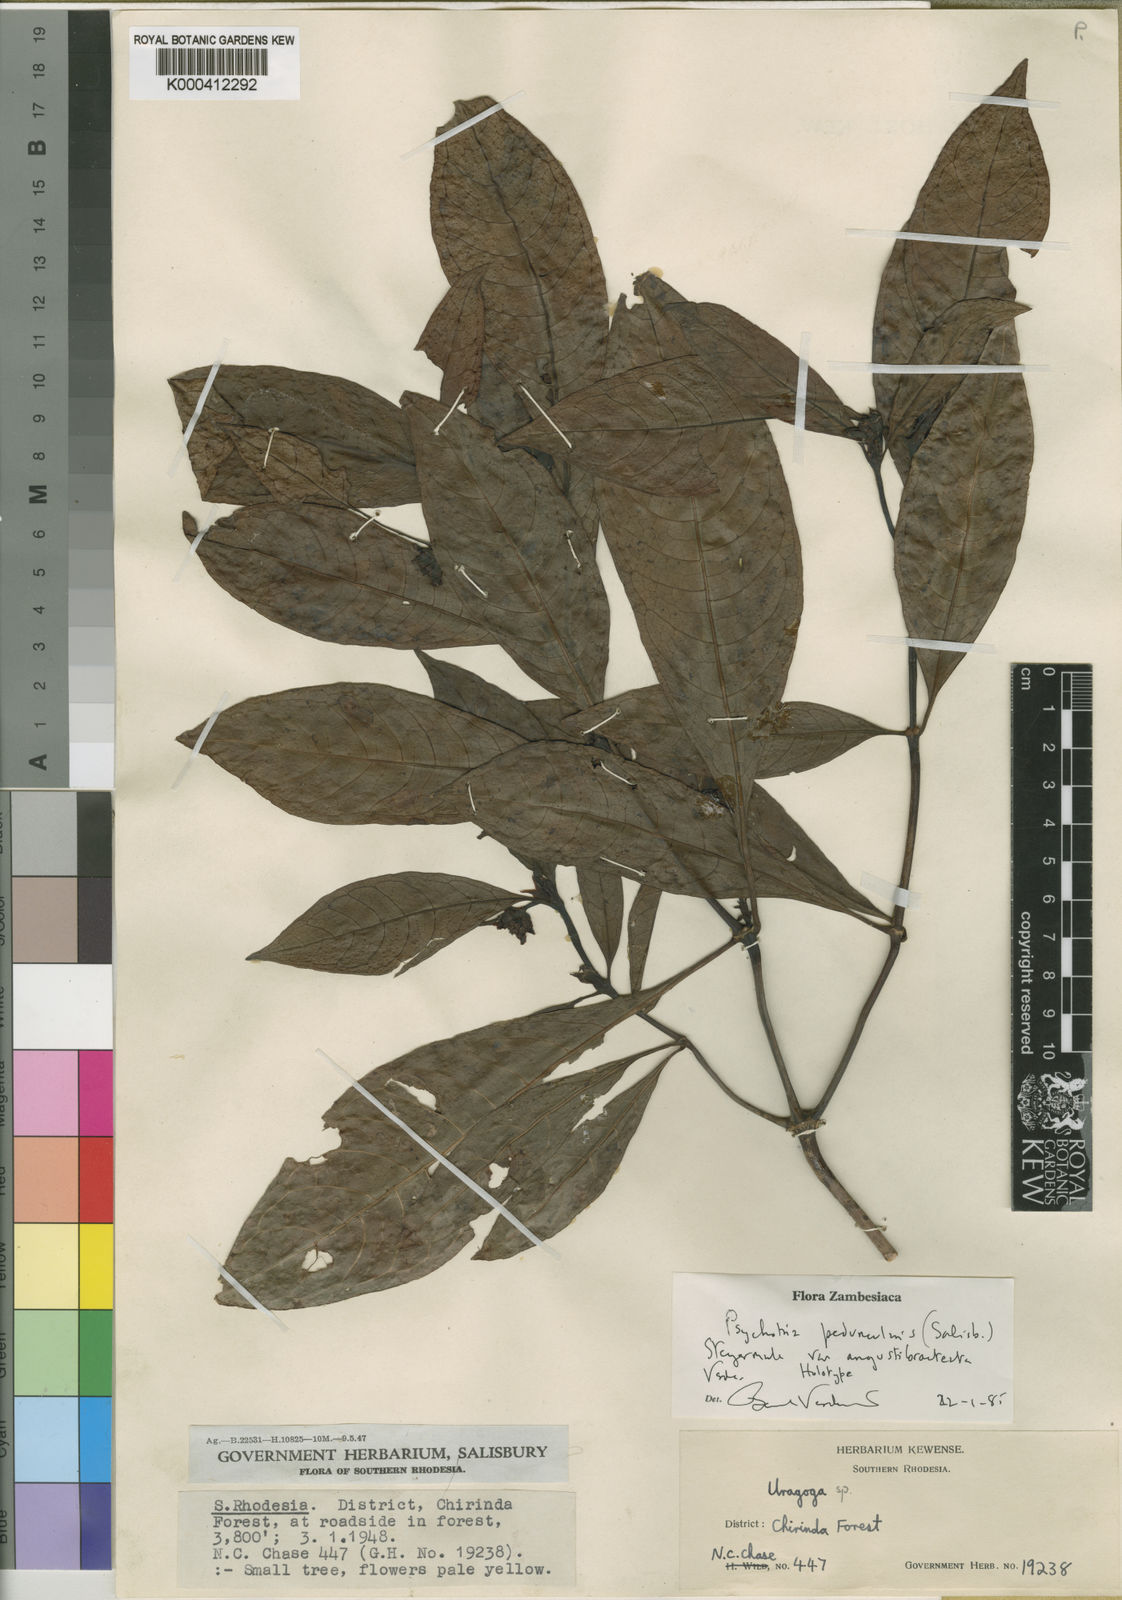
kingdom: Plantae
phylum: Tracheophyta
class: Magnoliopsida
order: Gentianales
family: Rubiaceae
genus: Psychotria
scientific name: Psychotria angustibracteata
